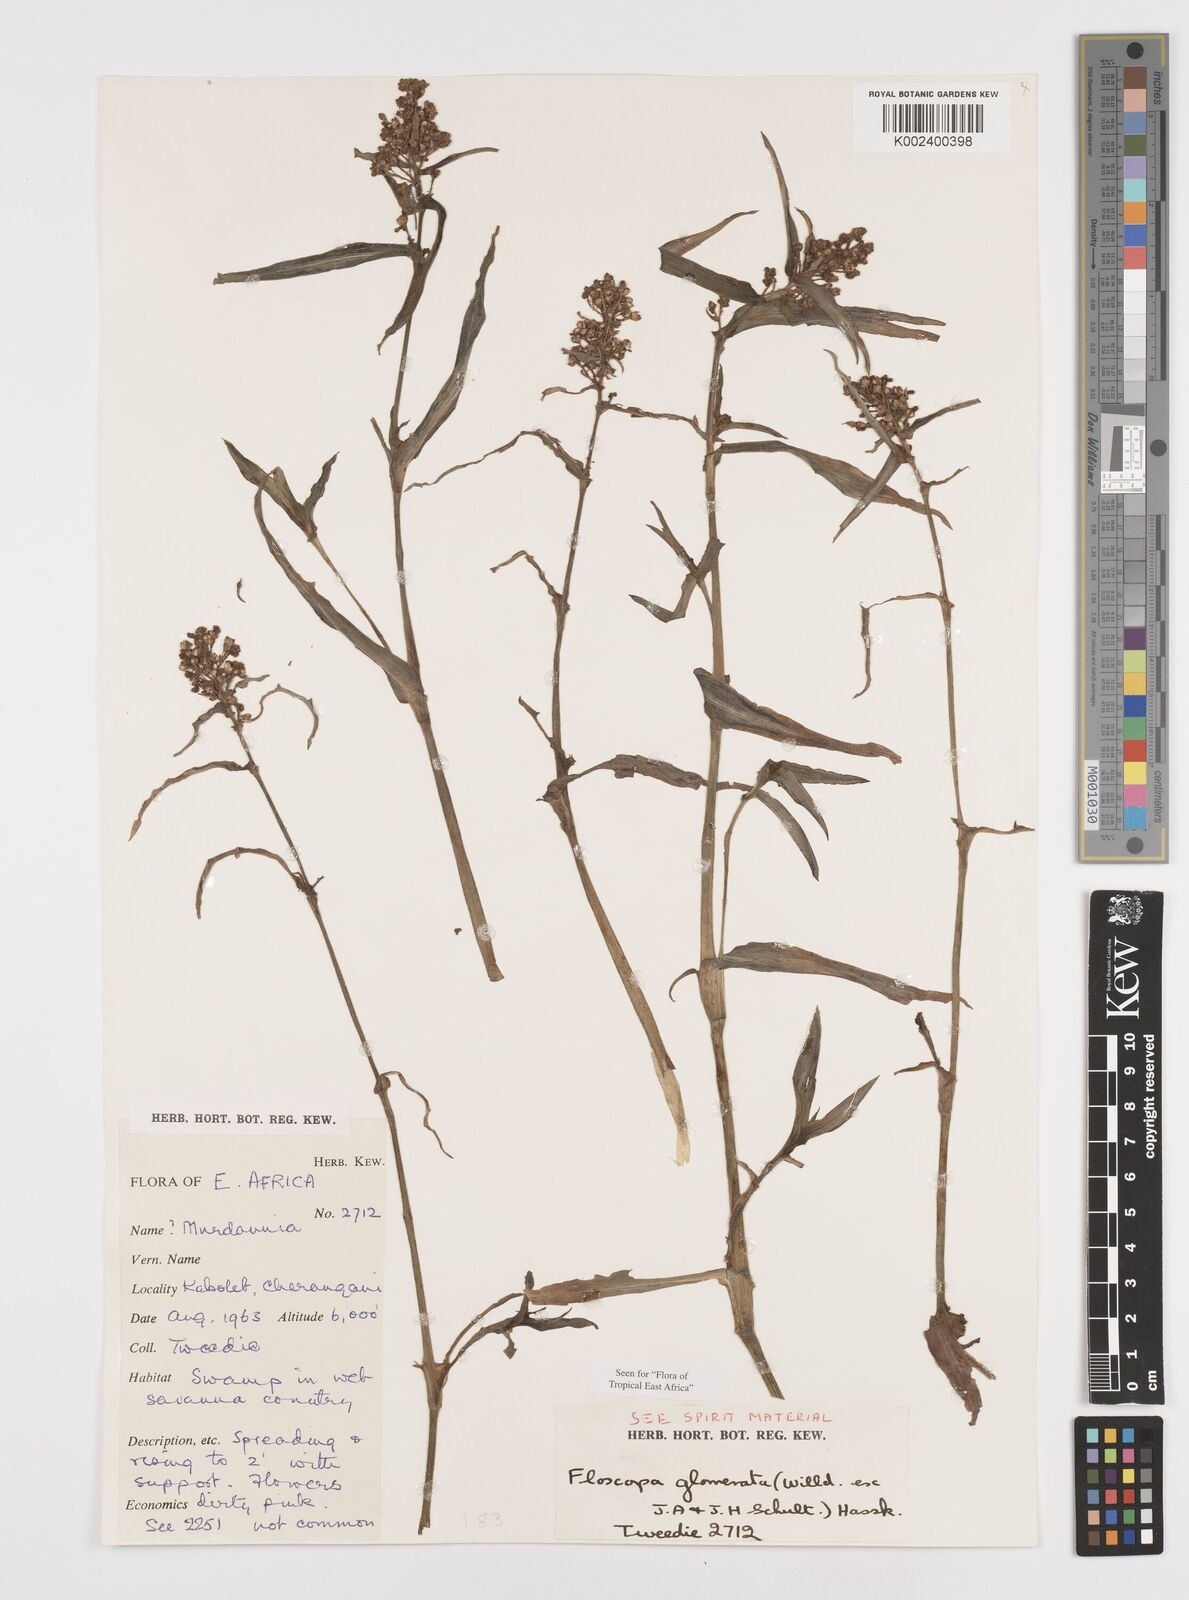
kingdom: Plantae
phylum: Tracheophyta
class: Liliopsida
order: Commelinales
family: Commelinaceae
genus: Floscopa
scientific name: Floscopa glomerata
